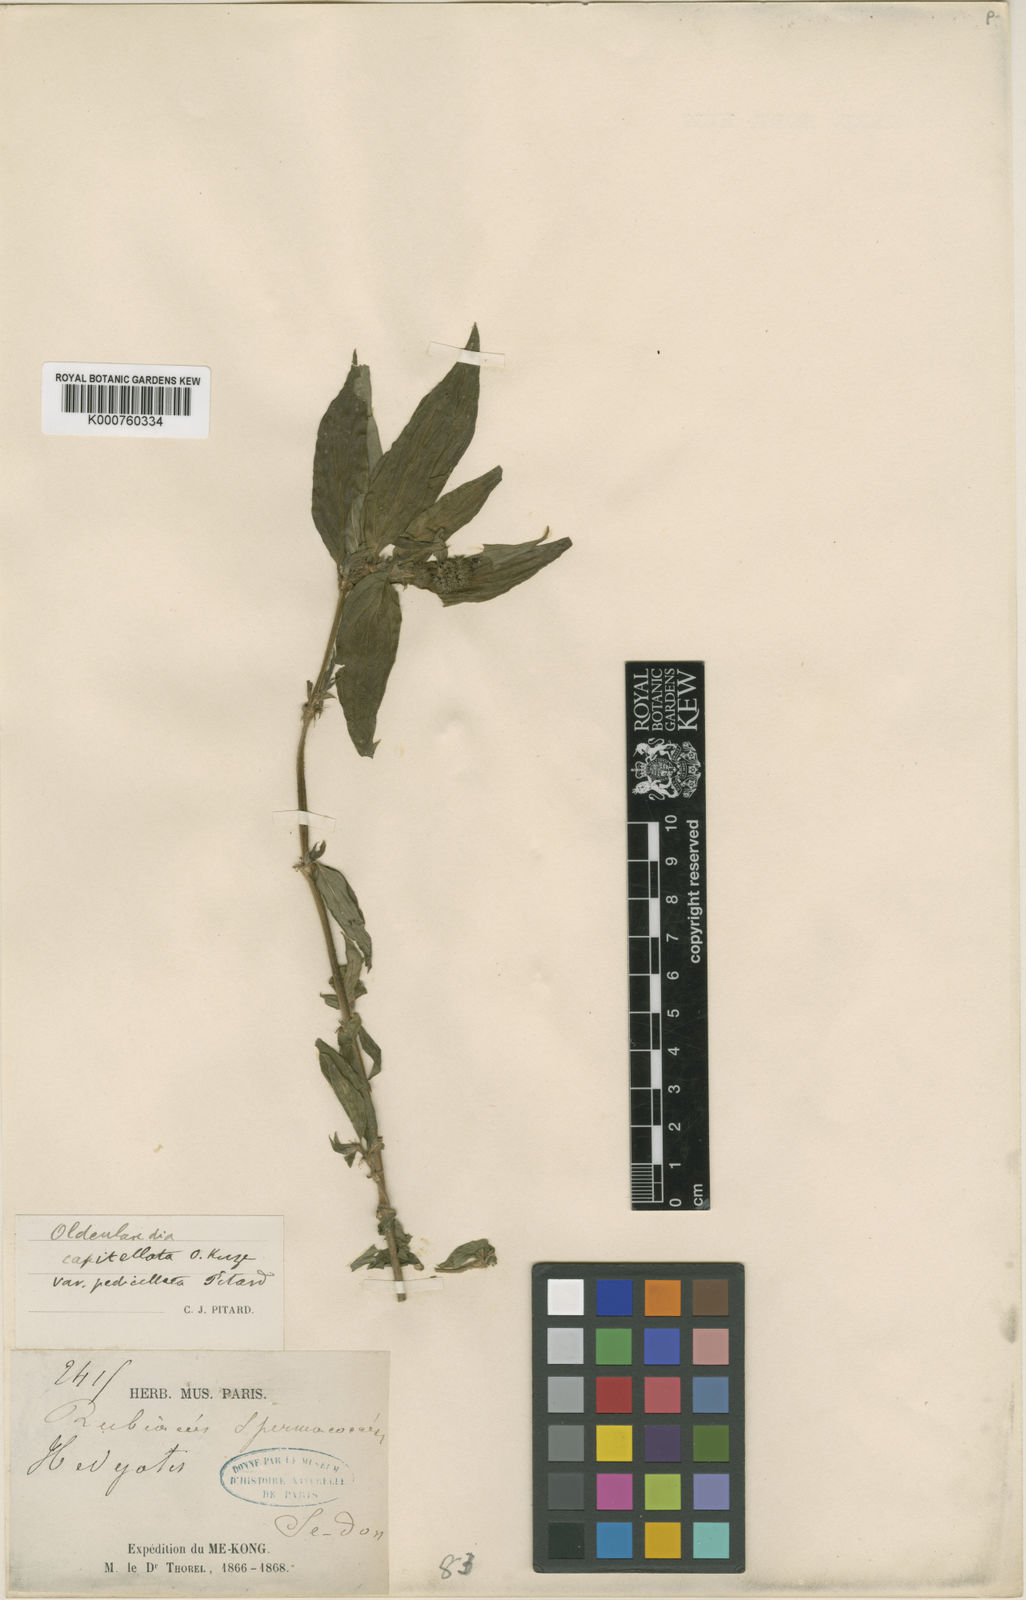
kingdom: Plantae
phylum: Tracheophyta
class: Magnoliopsida
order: Gentianales
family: Rubiaceae
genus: Dimetia
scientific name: Dimetia capitellata
